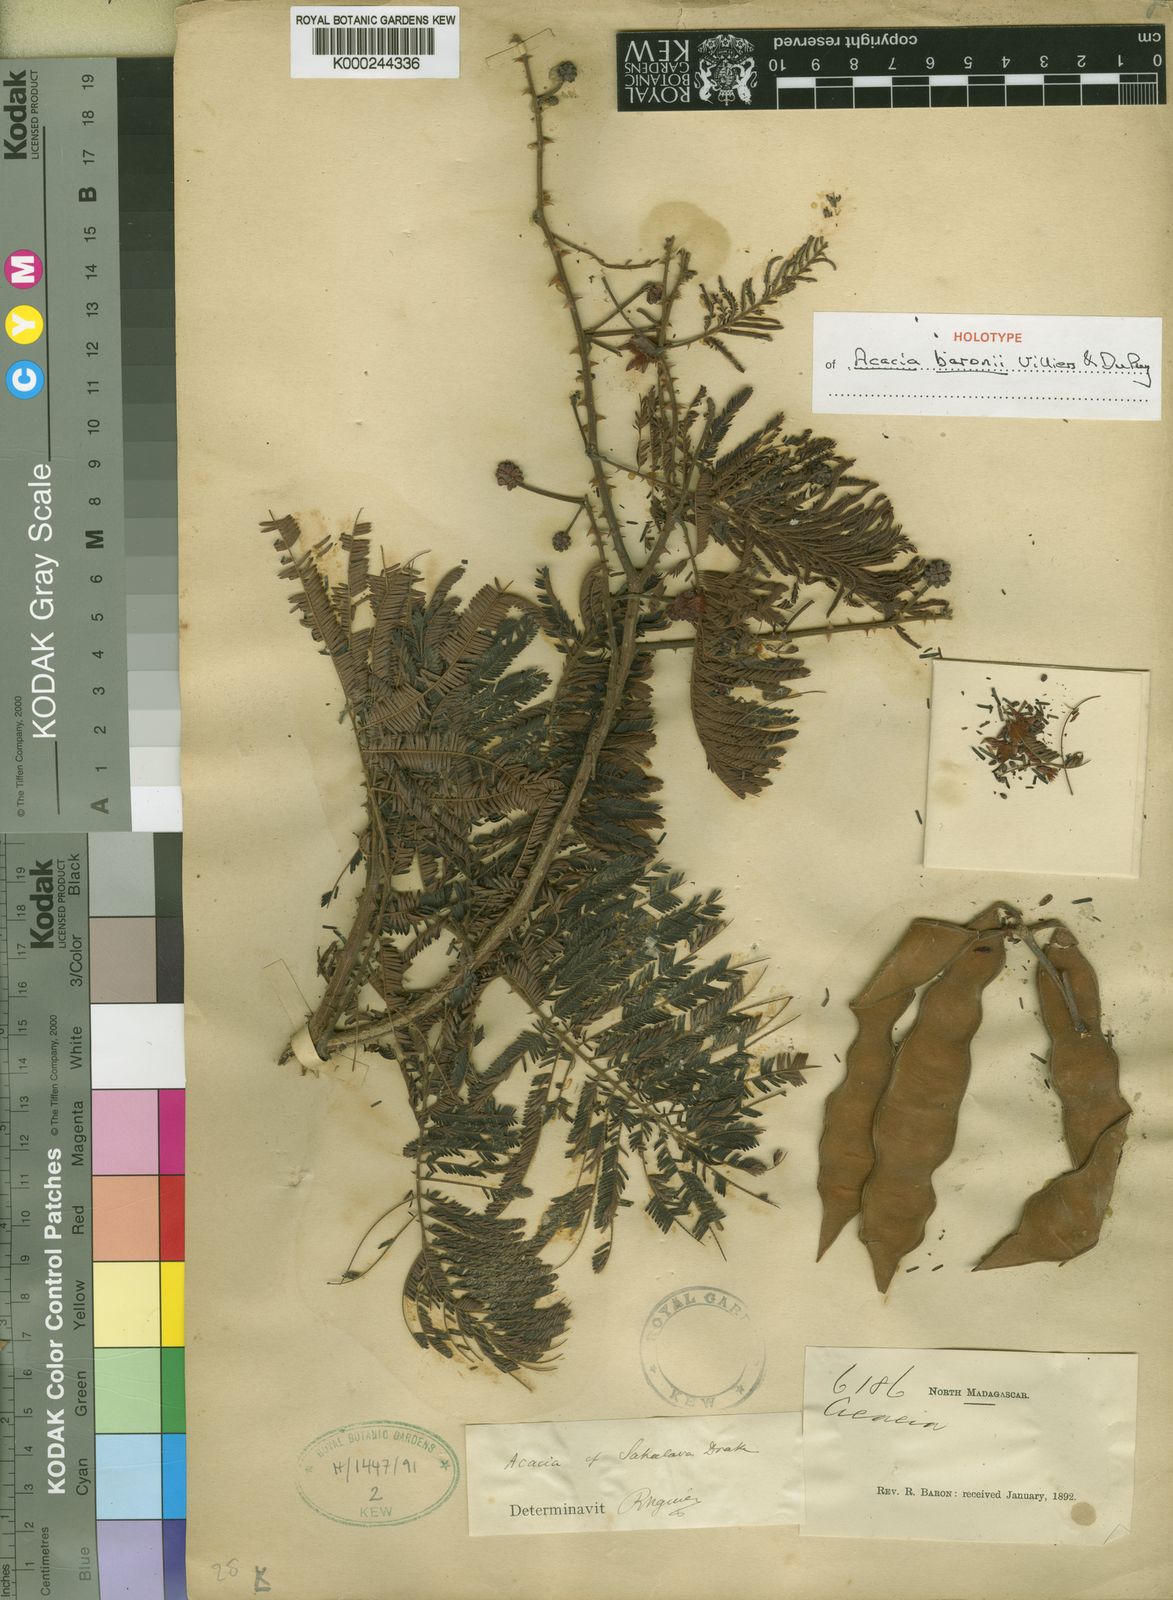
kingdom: Plantae
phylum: Tracheophyta
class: Magnoliopsida
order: Fabales
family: Fabaceae
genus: Senegalia
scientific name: Senegalia baronii
